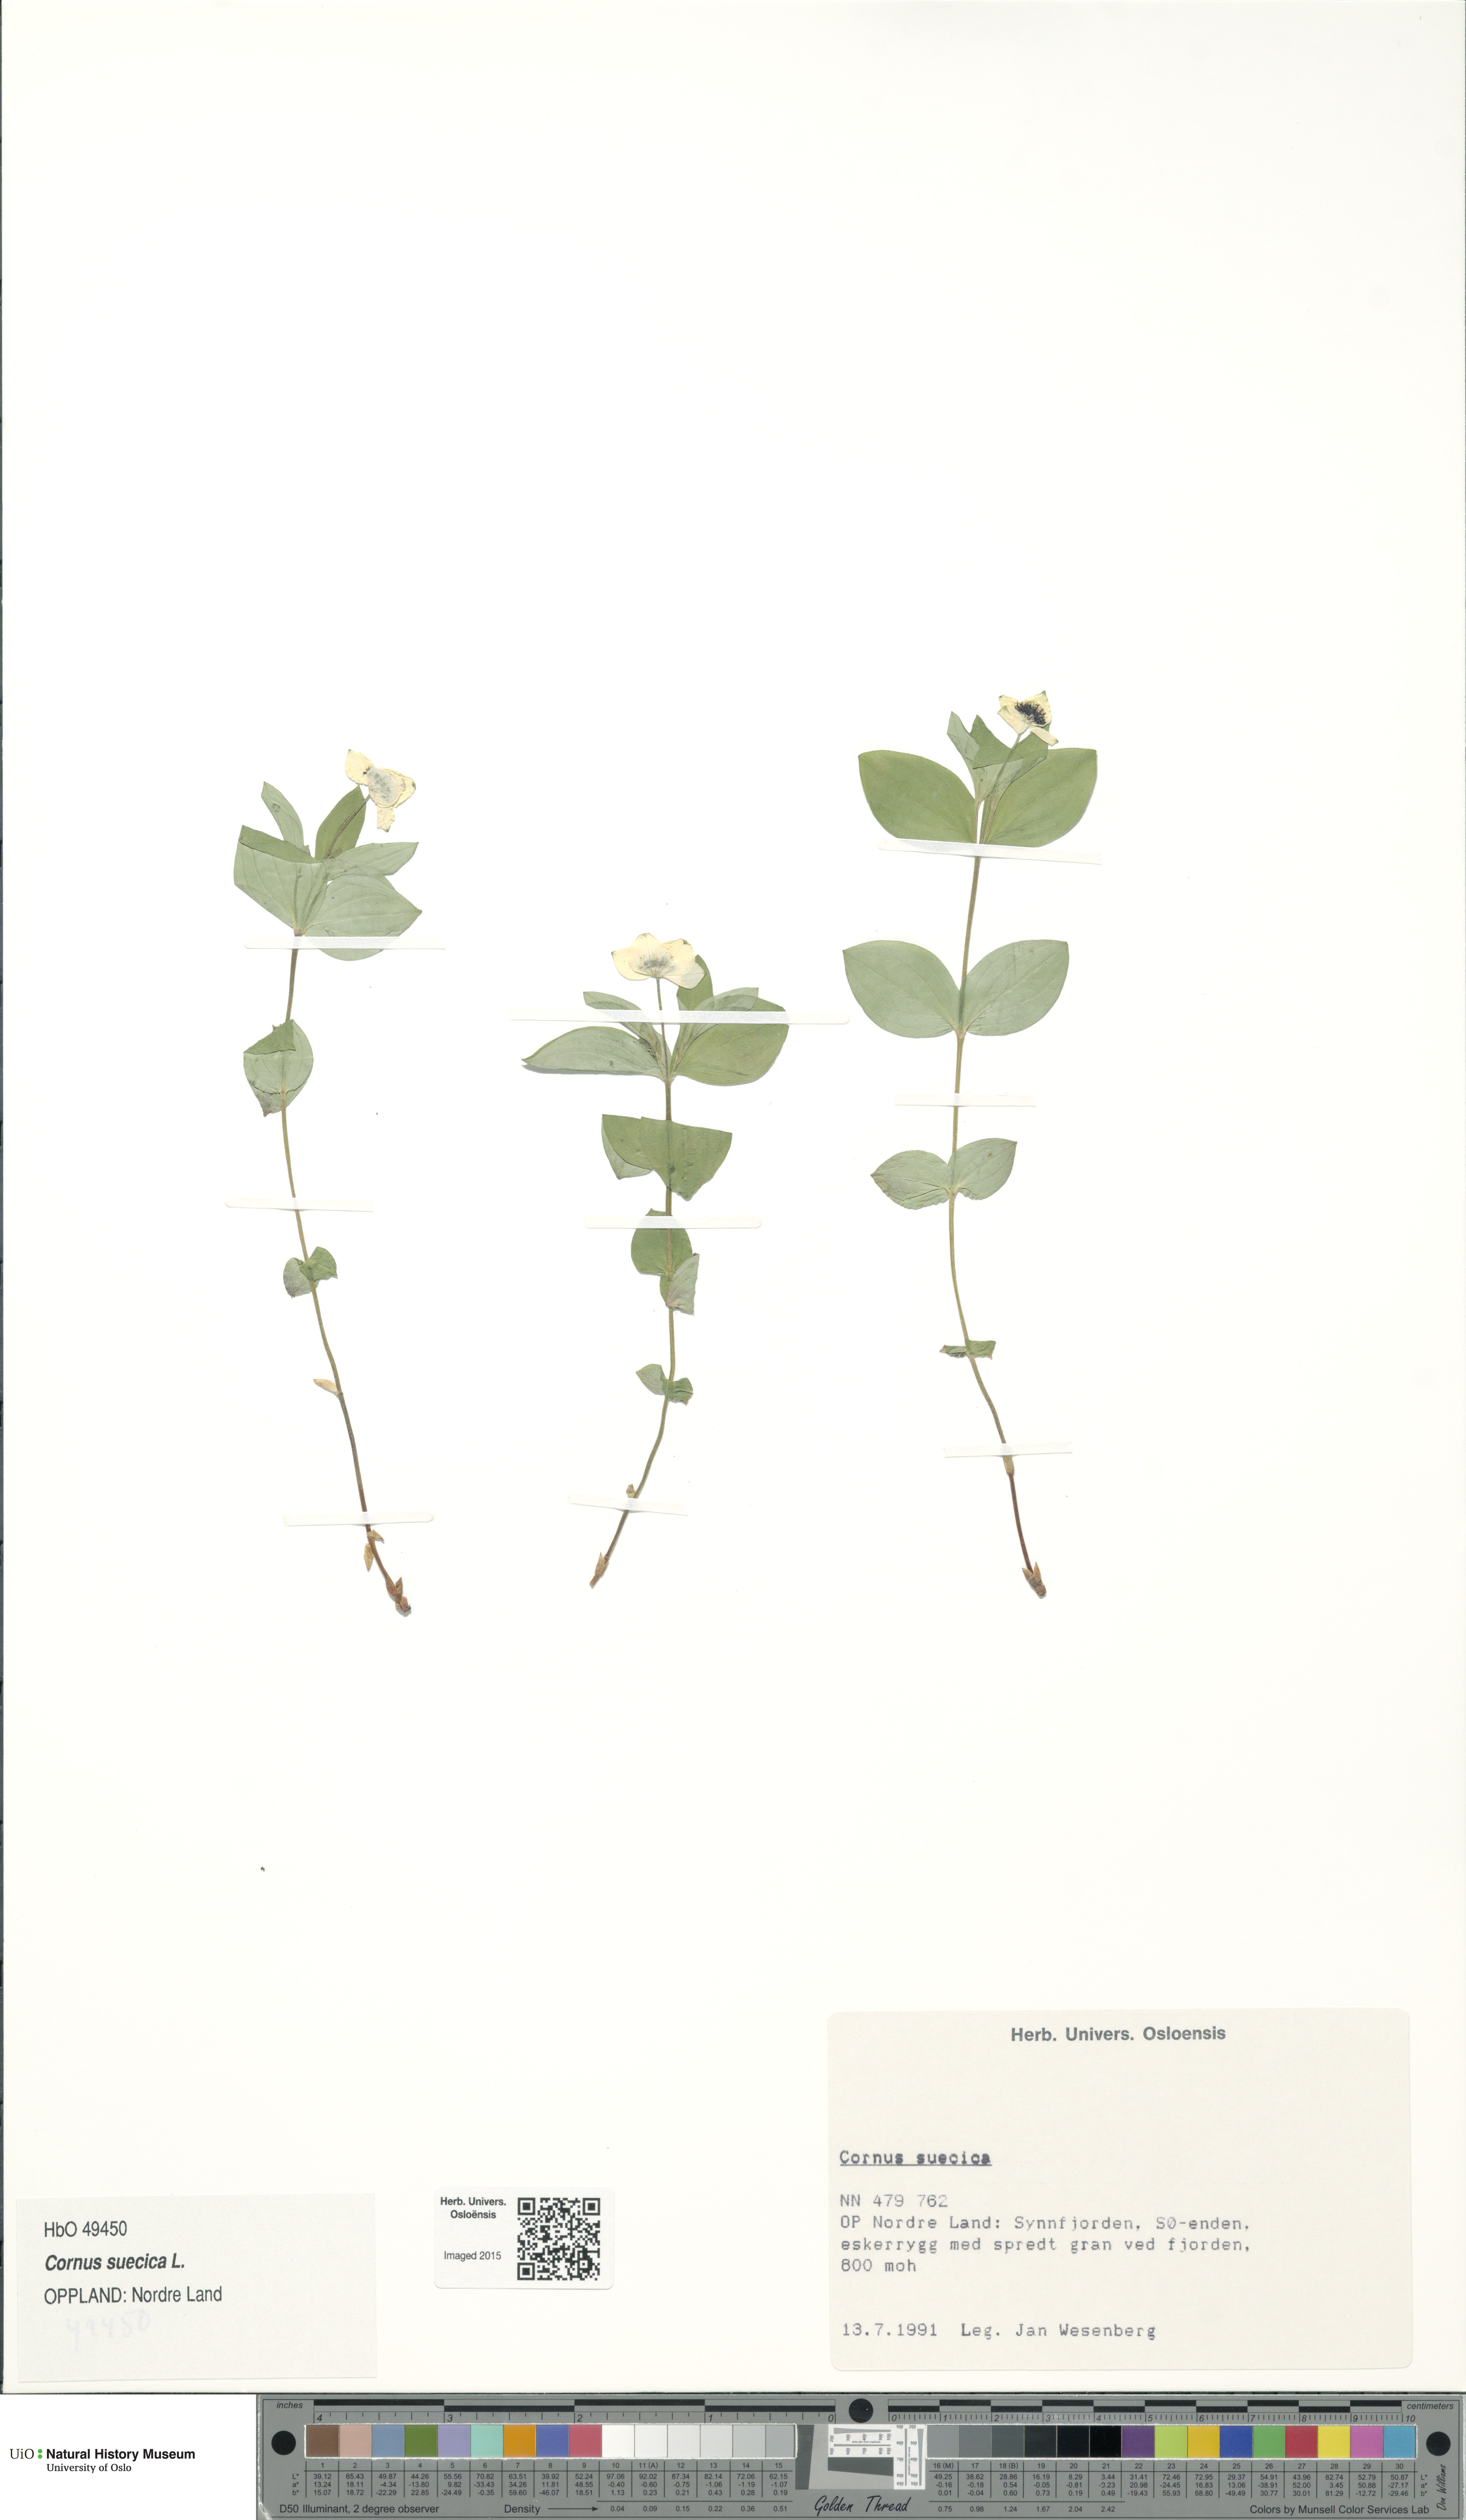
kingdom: Plantae
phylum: Tracheophyta
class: Magnoliopsida
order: Cornales
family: Cornaceae
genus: Cornus
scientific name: Cornus suecica
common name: Dwarf cornel
